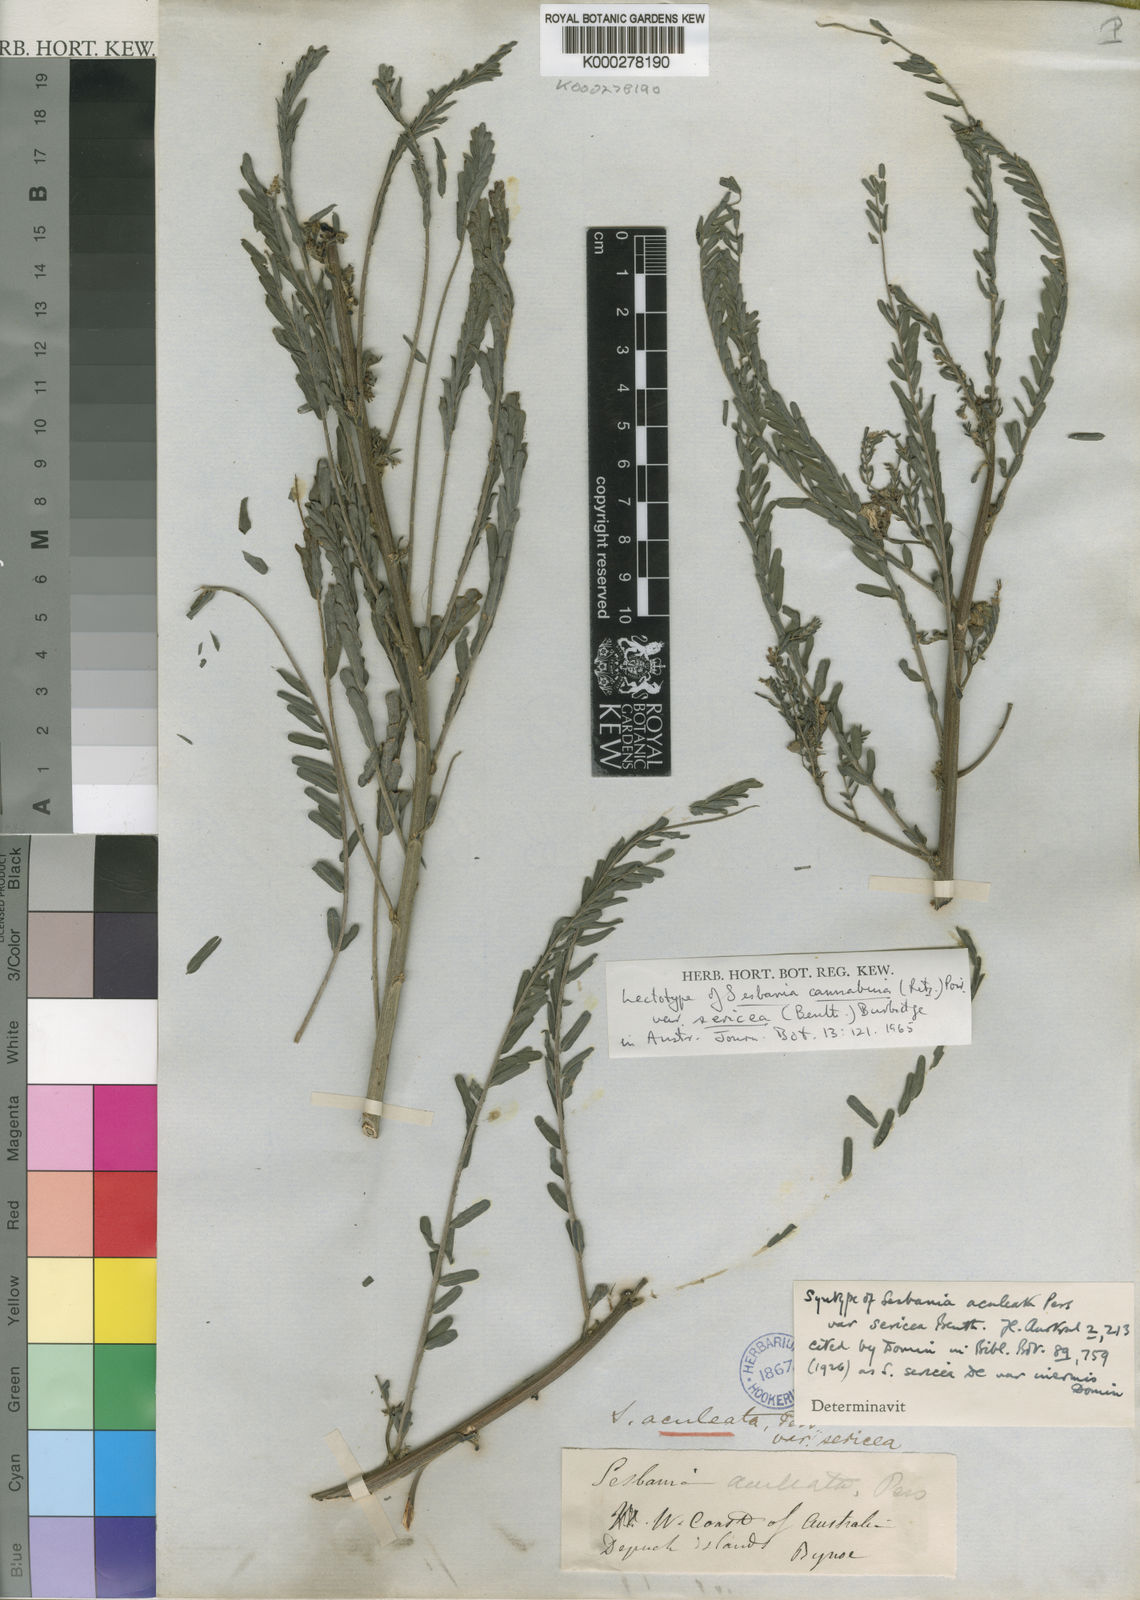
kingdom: Plantae
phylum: Tracheophyta
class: Magnoliopsida
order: Fabales
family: Fabaceae
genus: Sesbania
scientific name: Sesbania cannabina
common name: Canicha
